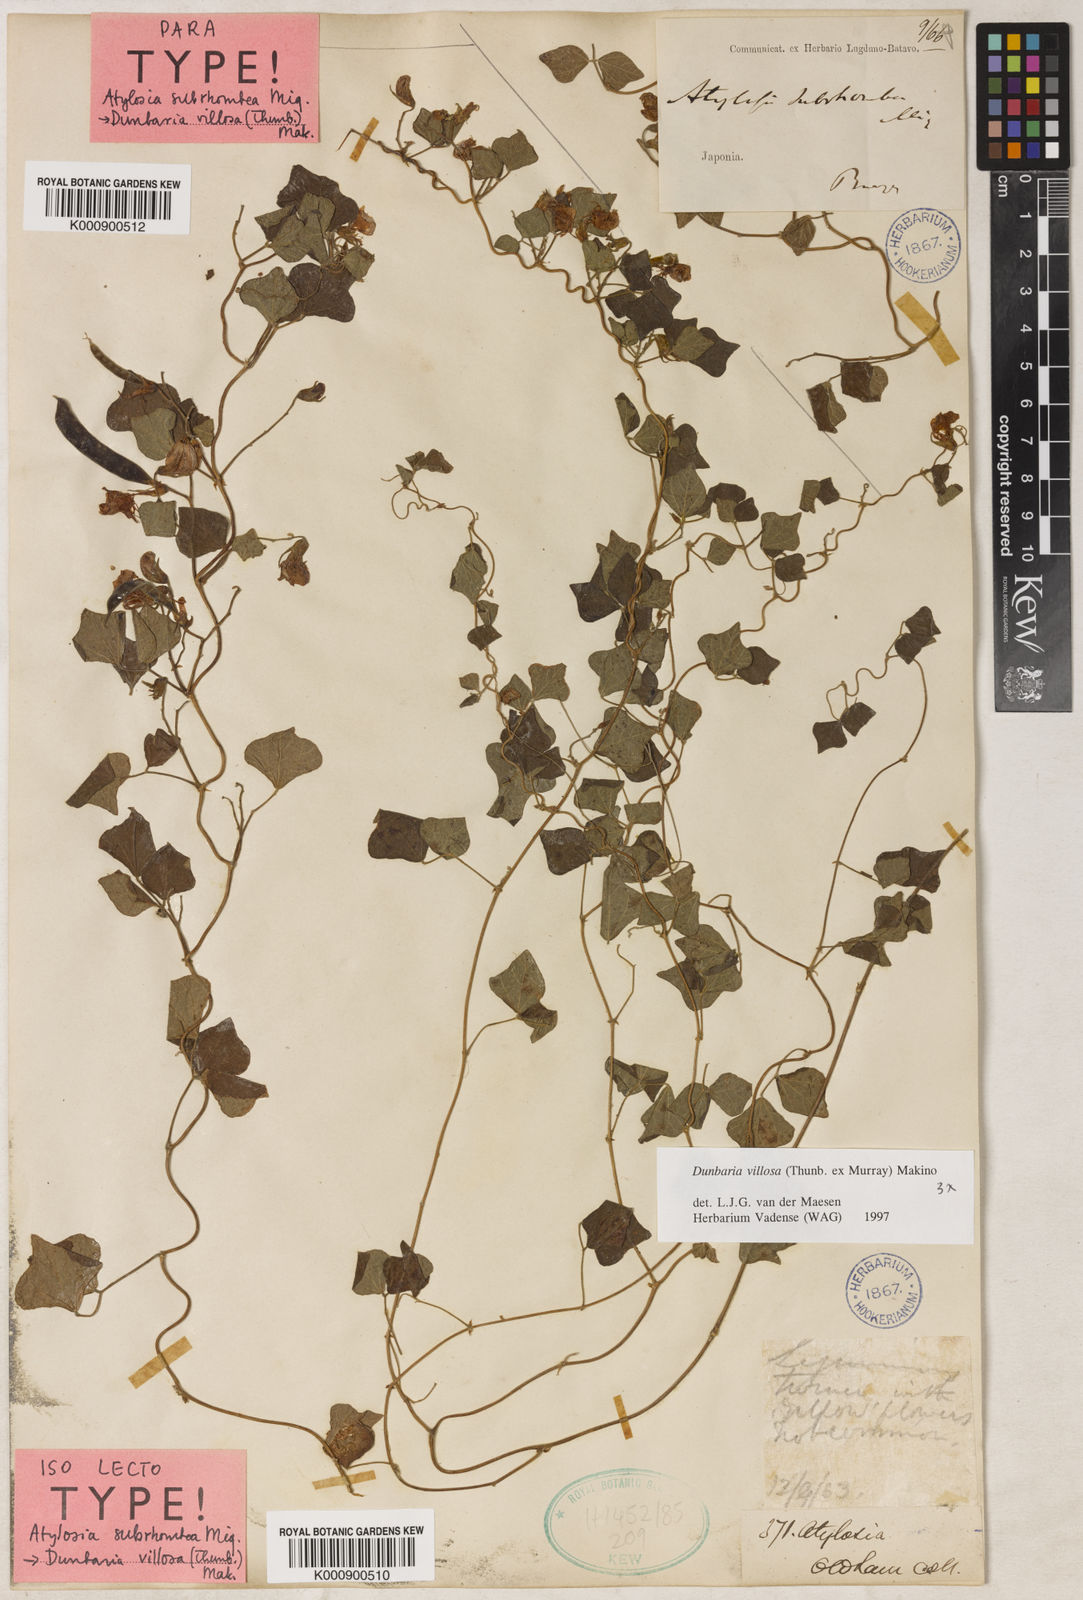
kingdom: Plantae
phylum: Tracheophyta
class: Magnoliopsida
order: Fabales
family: Fabaceae
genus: Dunbaria
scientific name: Dunbaria villosa
